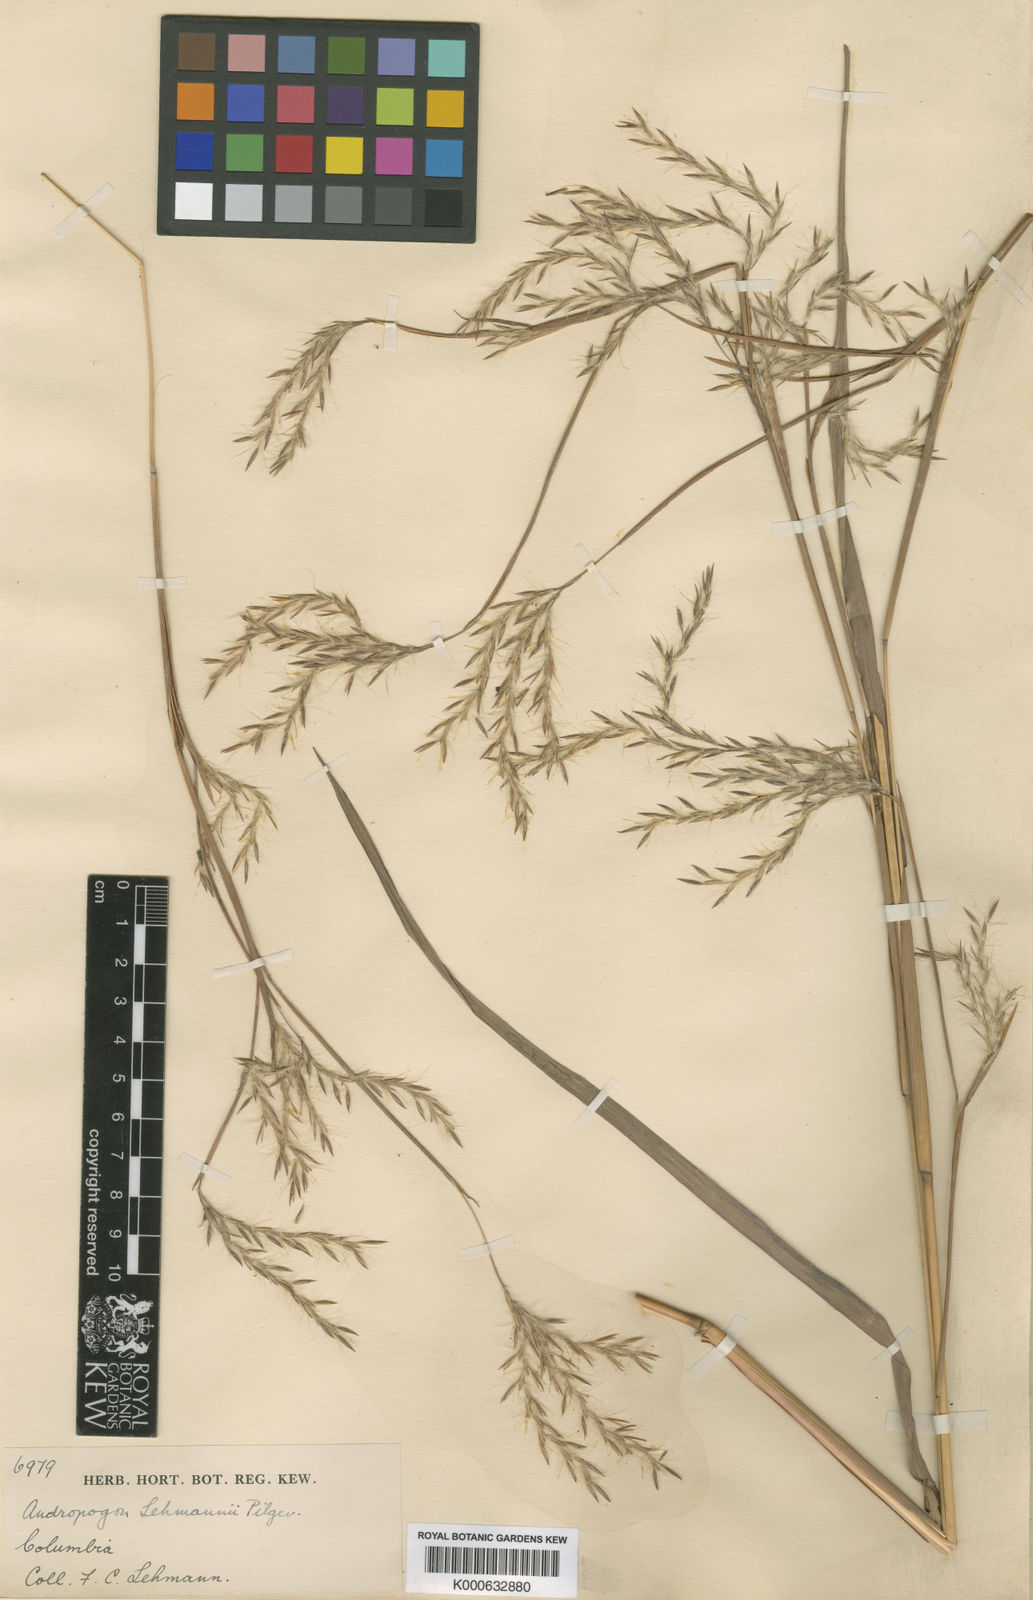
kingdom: Plantae
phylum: Tracheophyta
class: Liliopsida
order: Poales
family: Poaceae
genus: Andropogon
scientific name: Andropogon lehmannii
